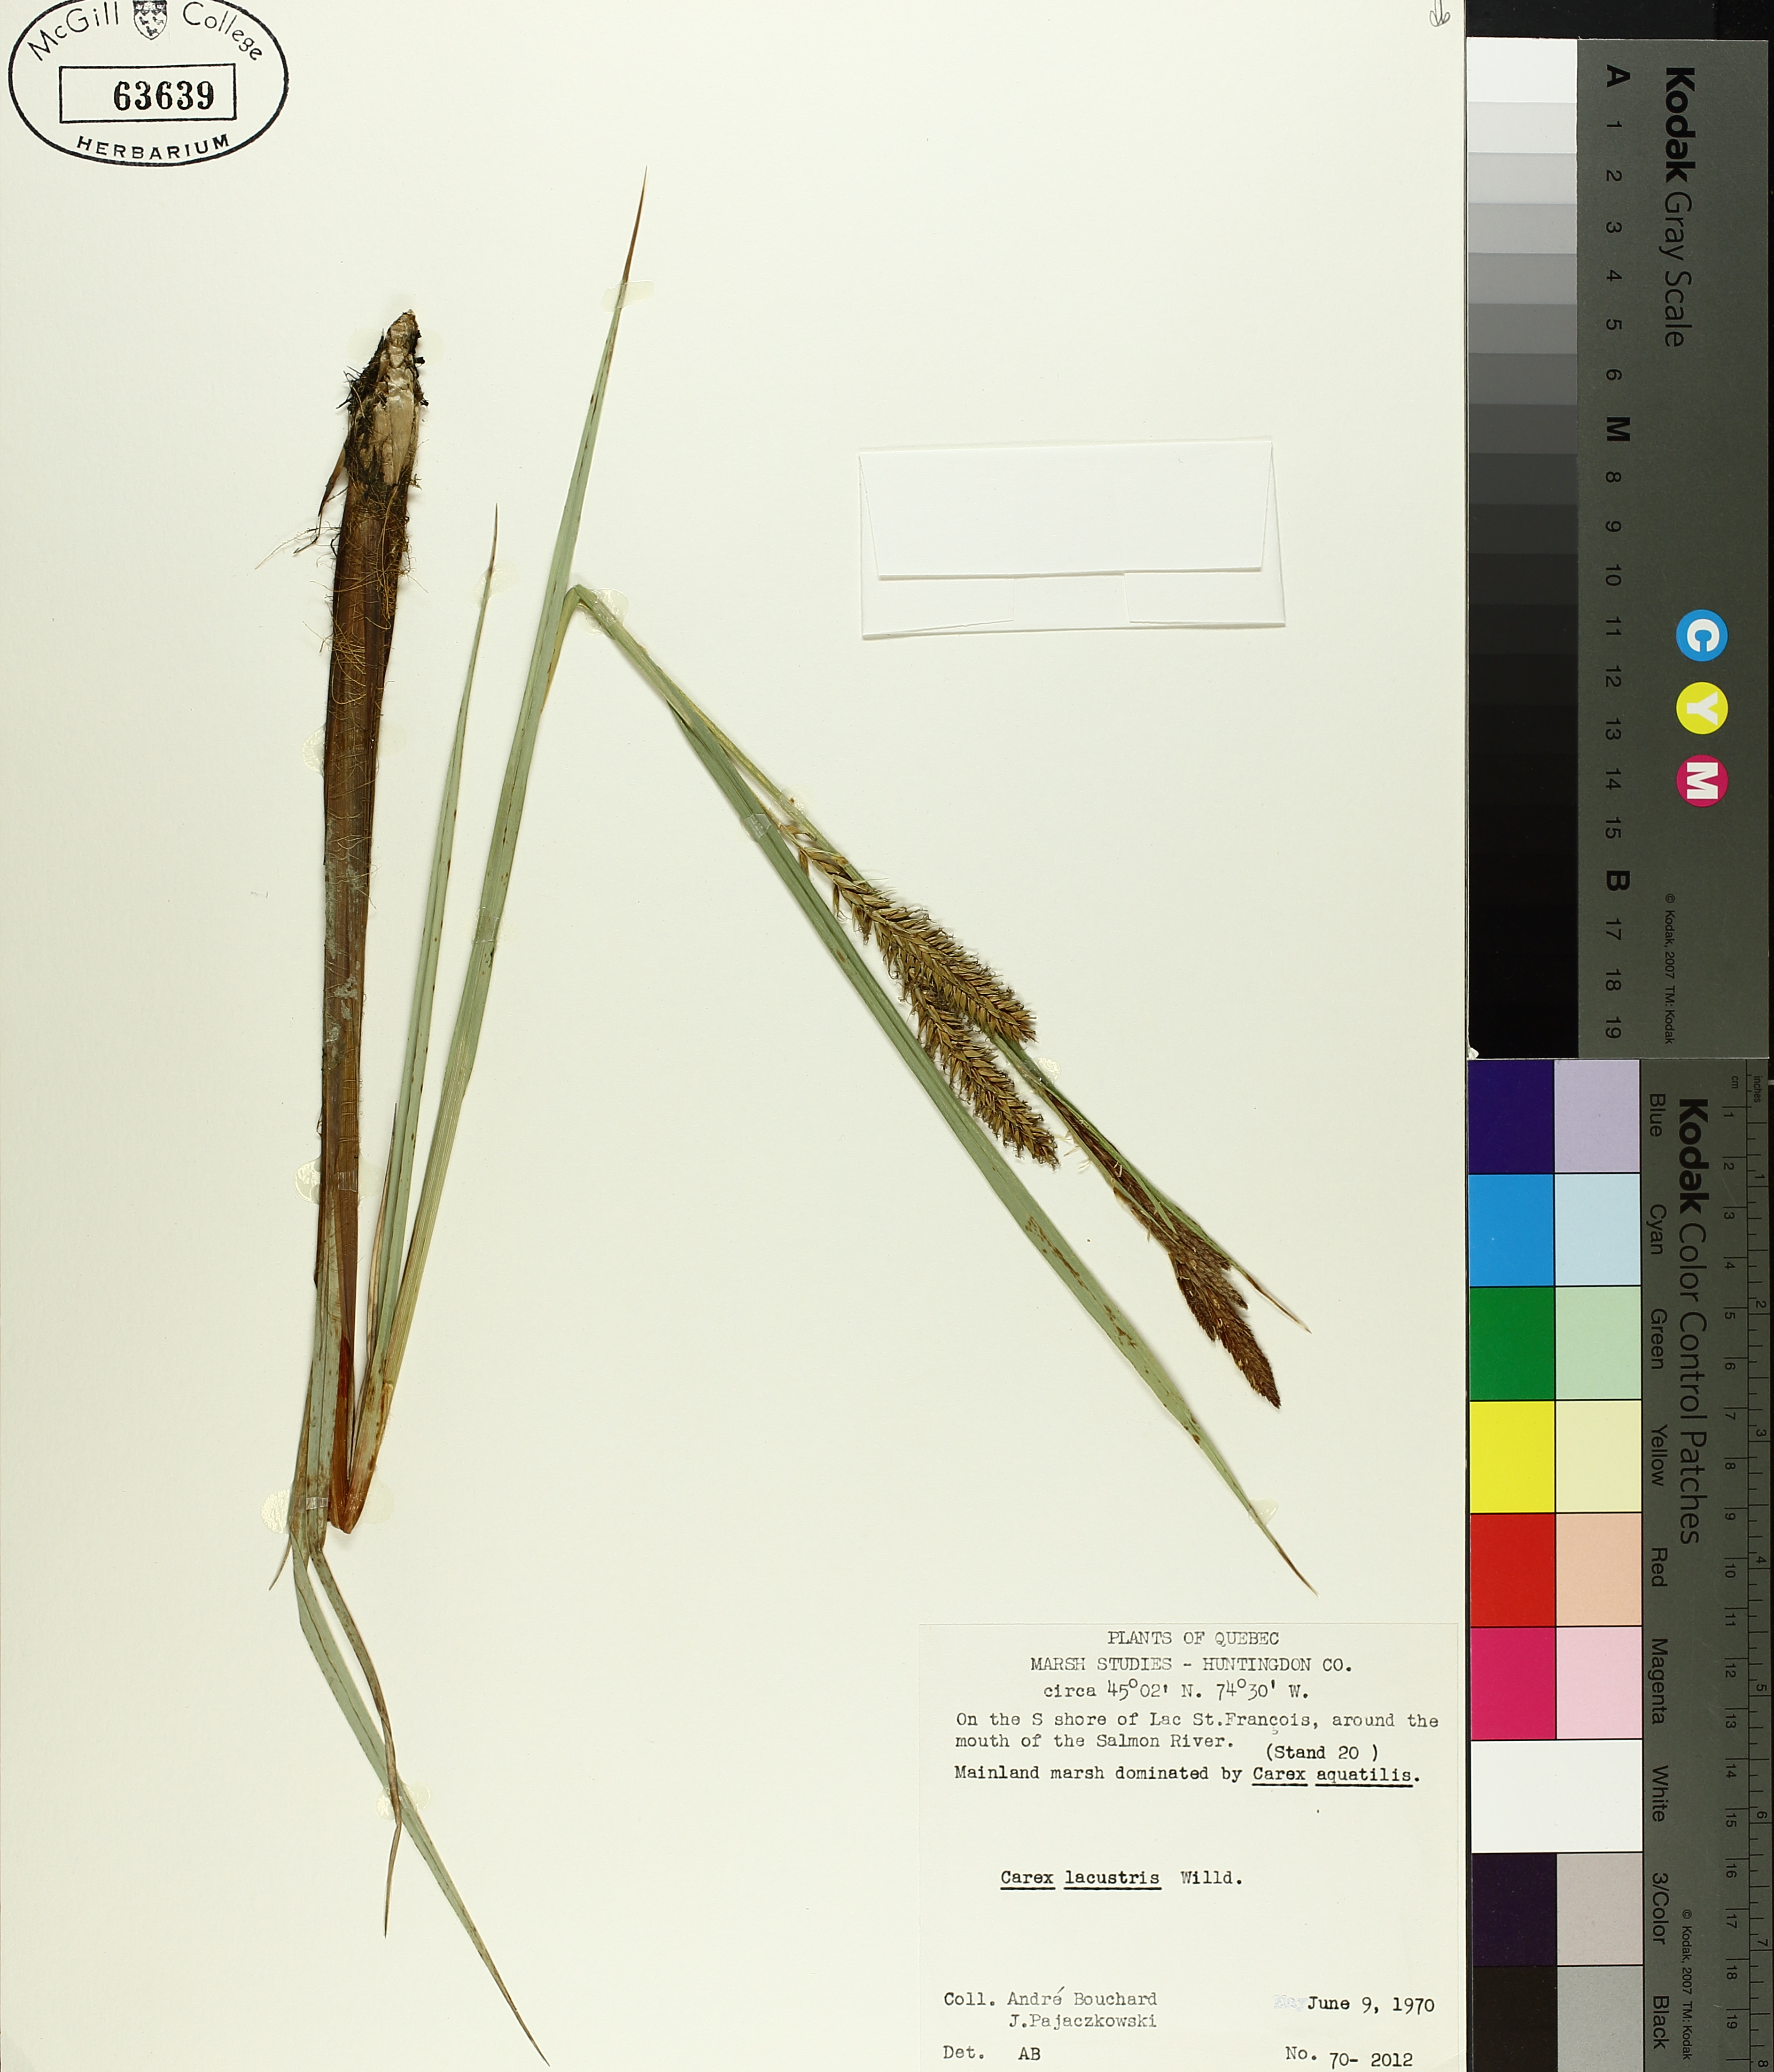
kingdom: Plantae
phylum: Tracheophyta
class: Liliopsida
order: Poales
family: Cyperaceae
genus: Carex
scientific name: Carex lacustris
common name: Common lake sedge
